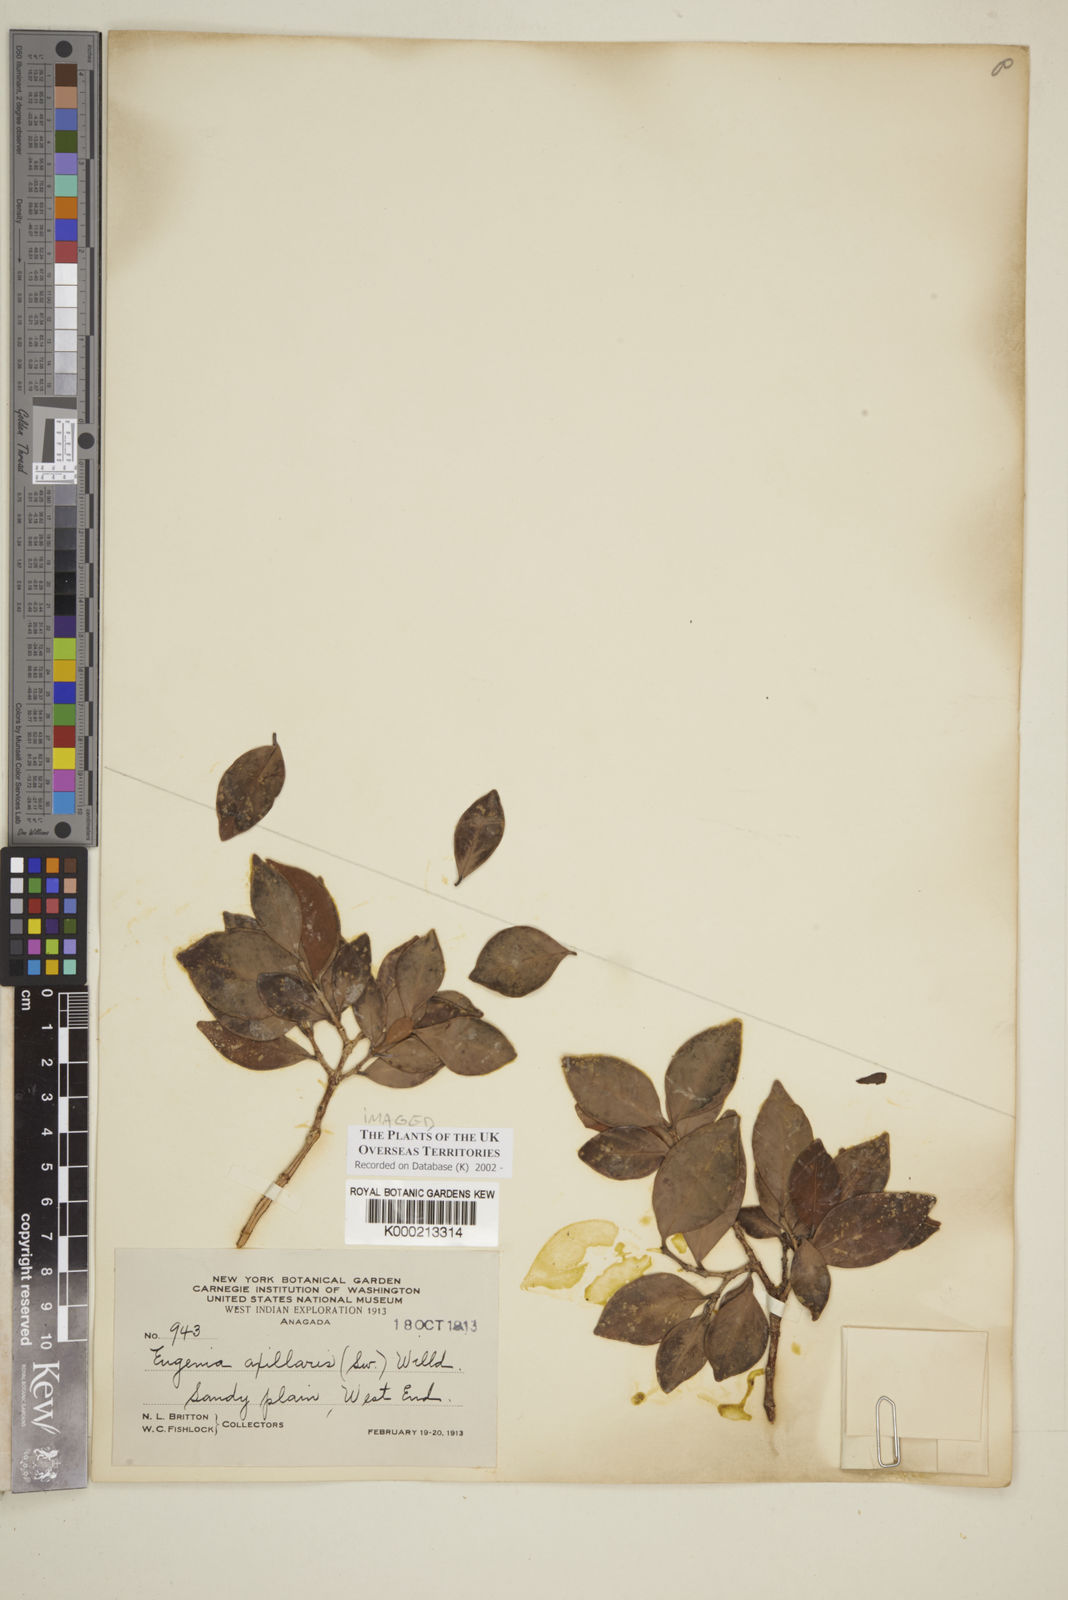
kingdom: Plantae
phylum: Tracheophyta
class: Magnoliopsida
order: Myrtales
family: Myrtaceae
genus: Eugenia
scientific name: Eugenia axillaris
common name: Choaky berry
